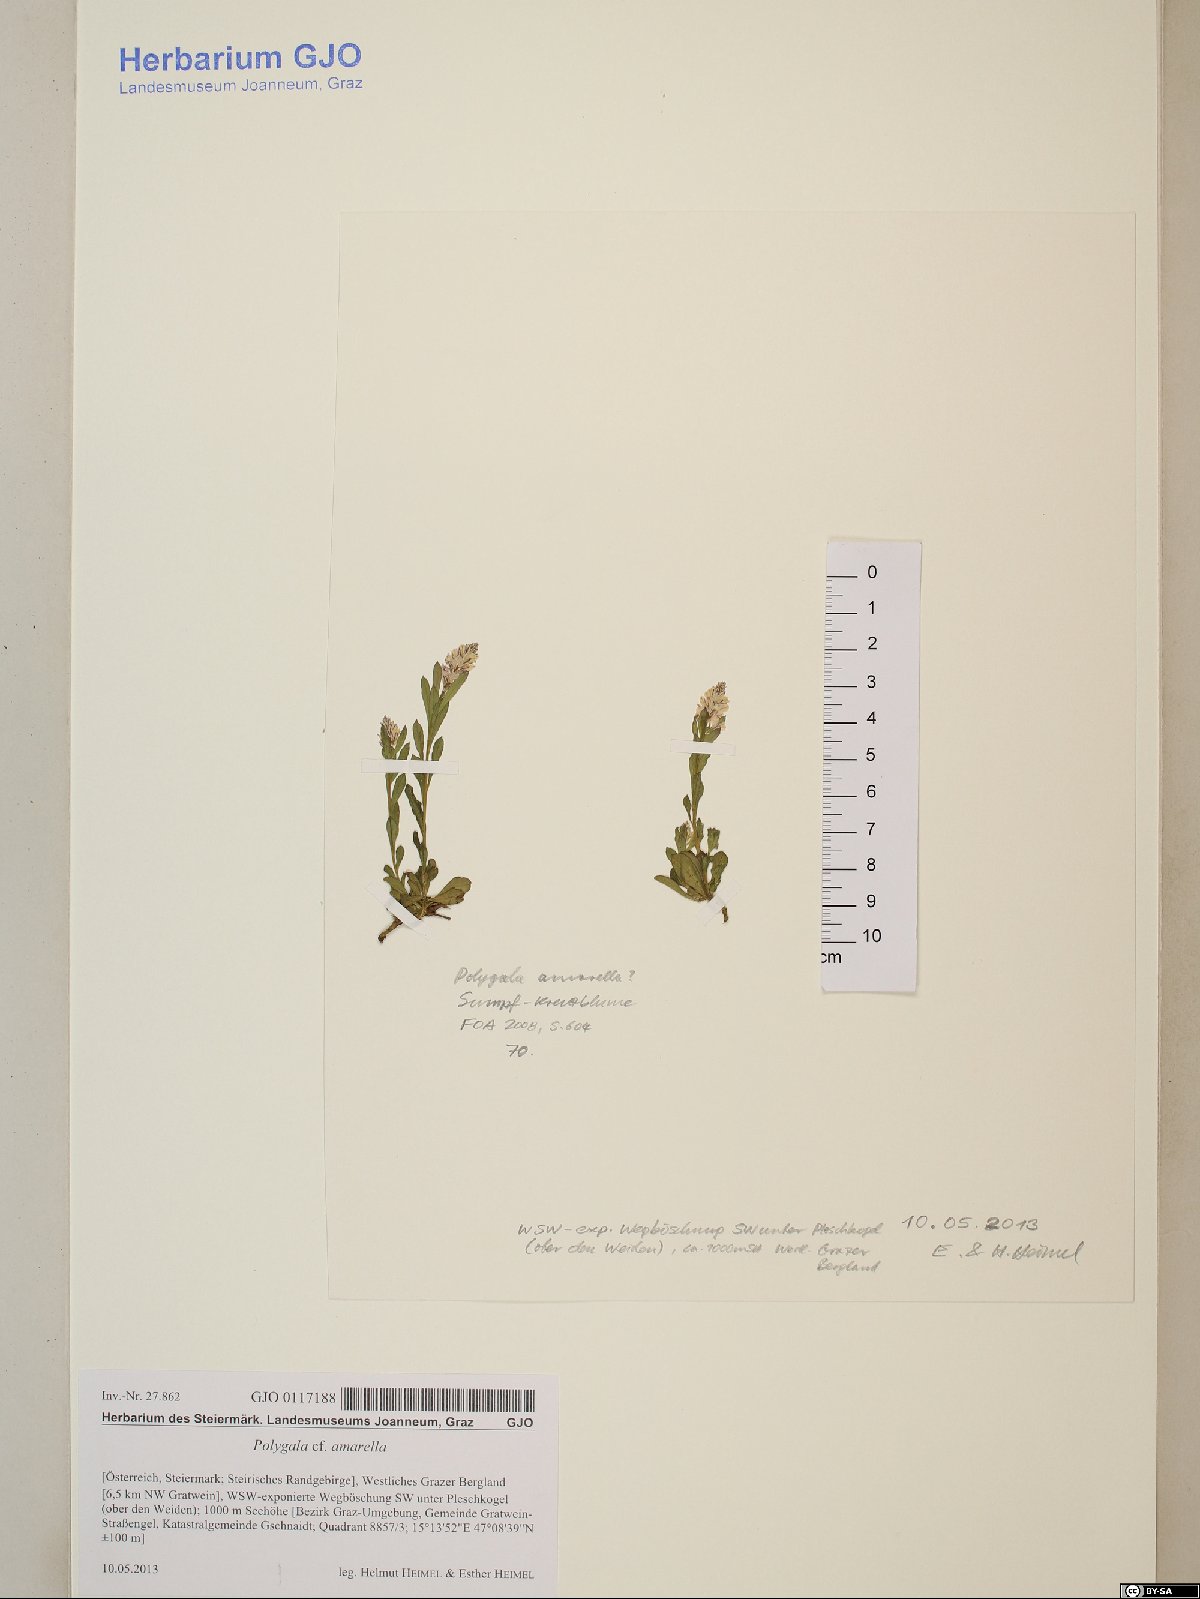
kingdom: Plantae
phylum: Tracheophyta
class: Magnoliopsida
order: Fabales
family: Polygalaceae
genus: Polygala
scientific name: Polygala amarella
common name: Dwarf milkwort
